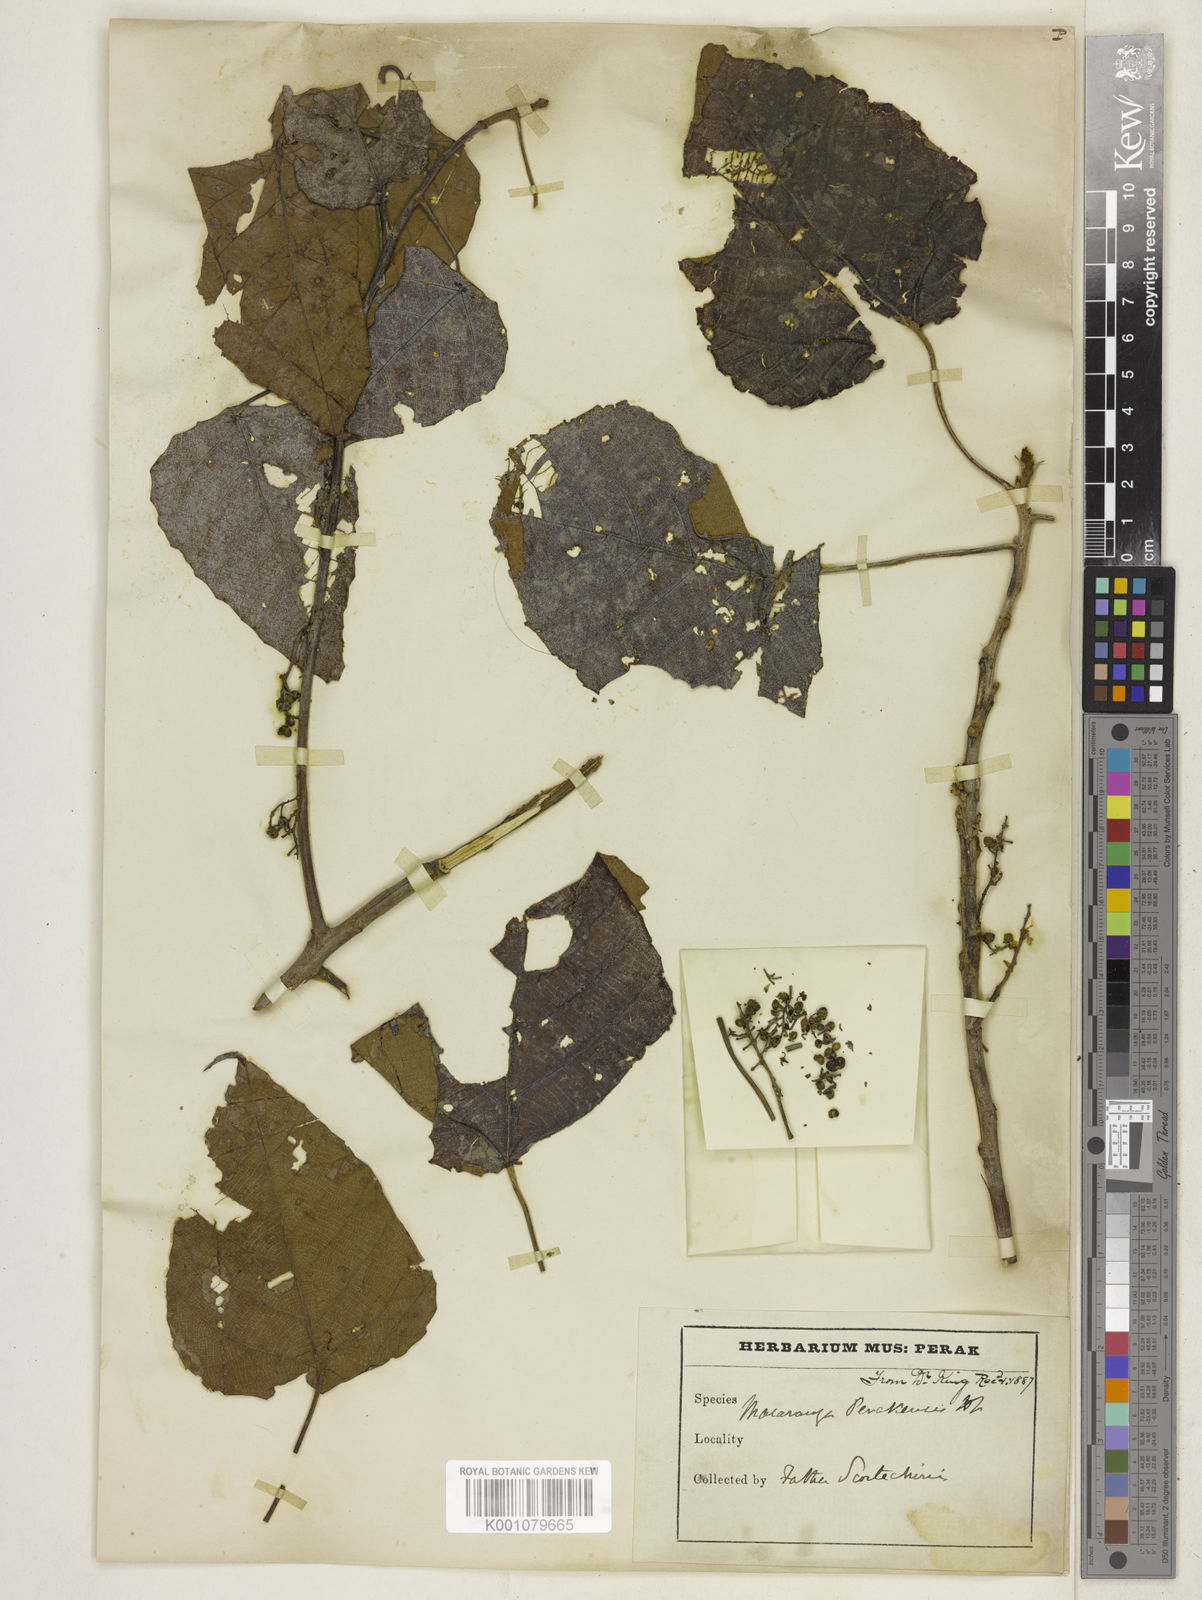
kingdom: Plantae
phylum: Tracheophyta
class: Magnoliopsida
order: Malpighiales
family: Euphorbiaceae
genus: Macaranga
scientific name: Macaranga
